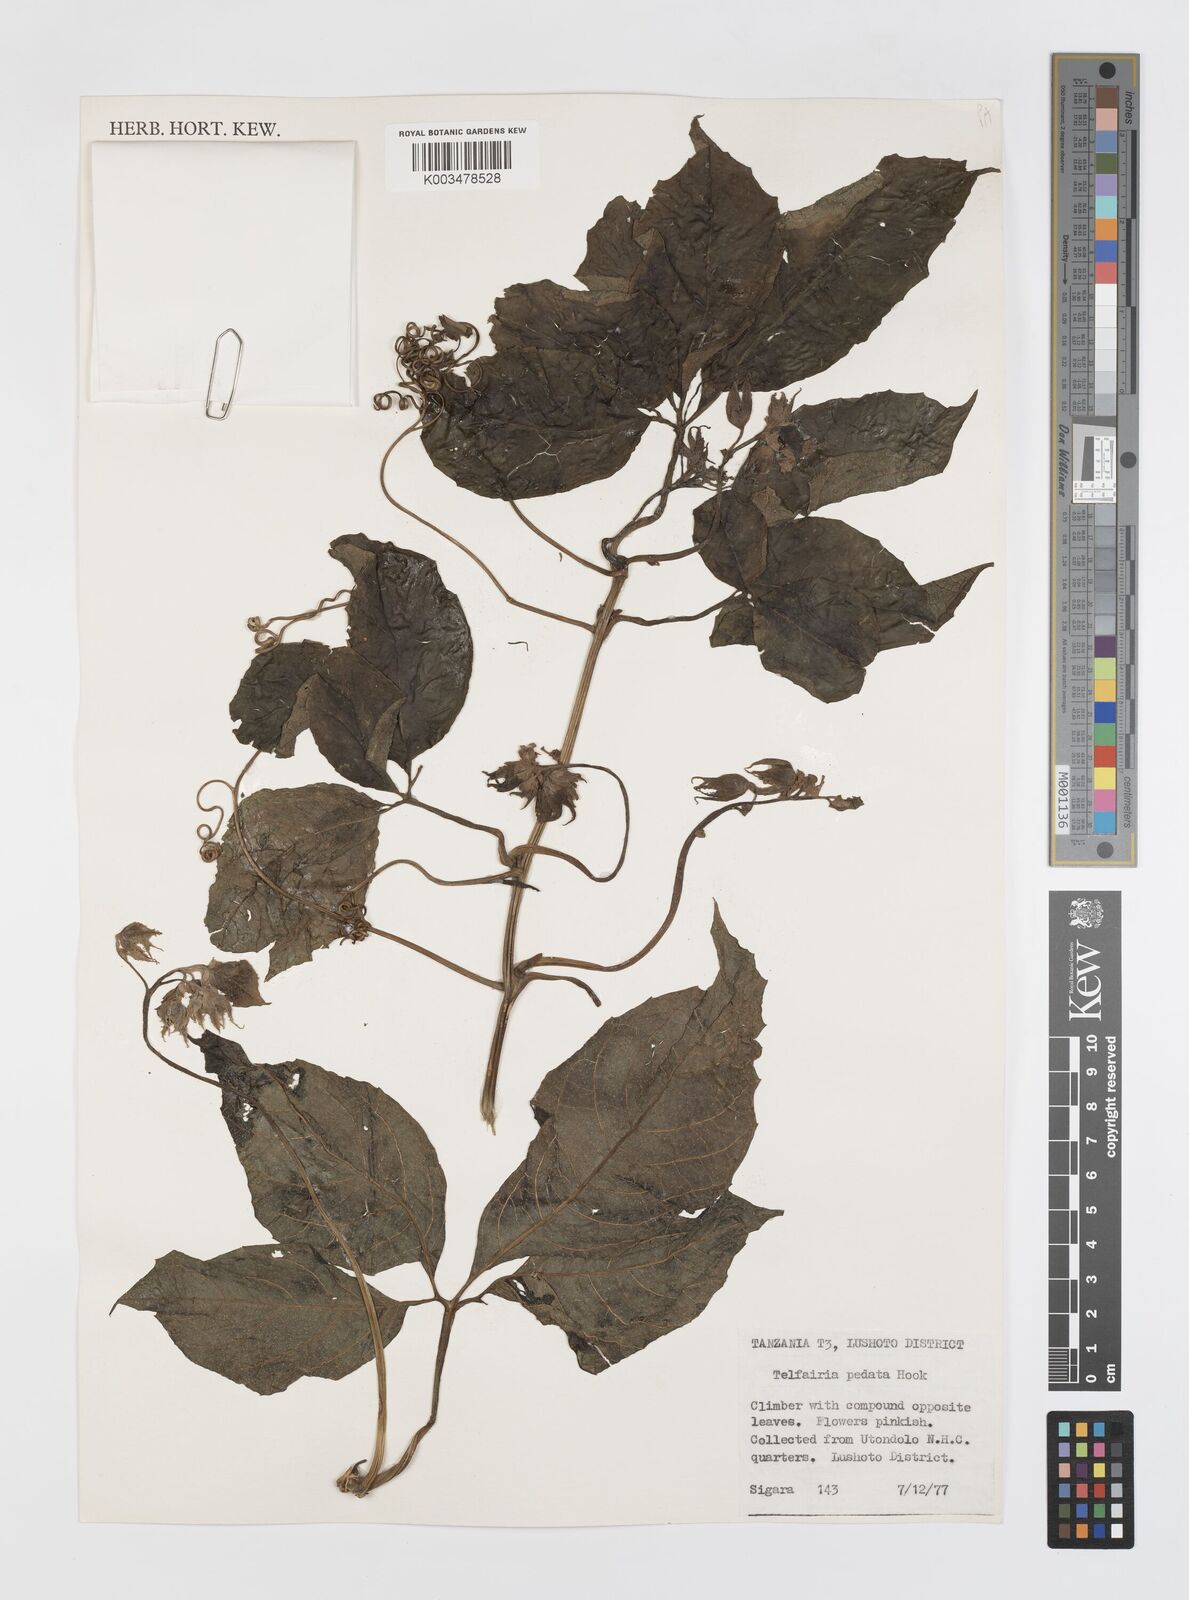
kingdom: Plantae
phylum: Tracheophyta
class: Magnoliopsida
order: Cucurbitales
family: Cucurbitaceae
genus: Telfairia
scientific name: Telfairia pedata
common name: Zanzibar oilvine
